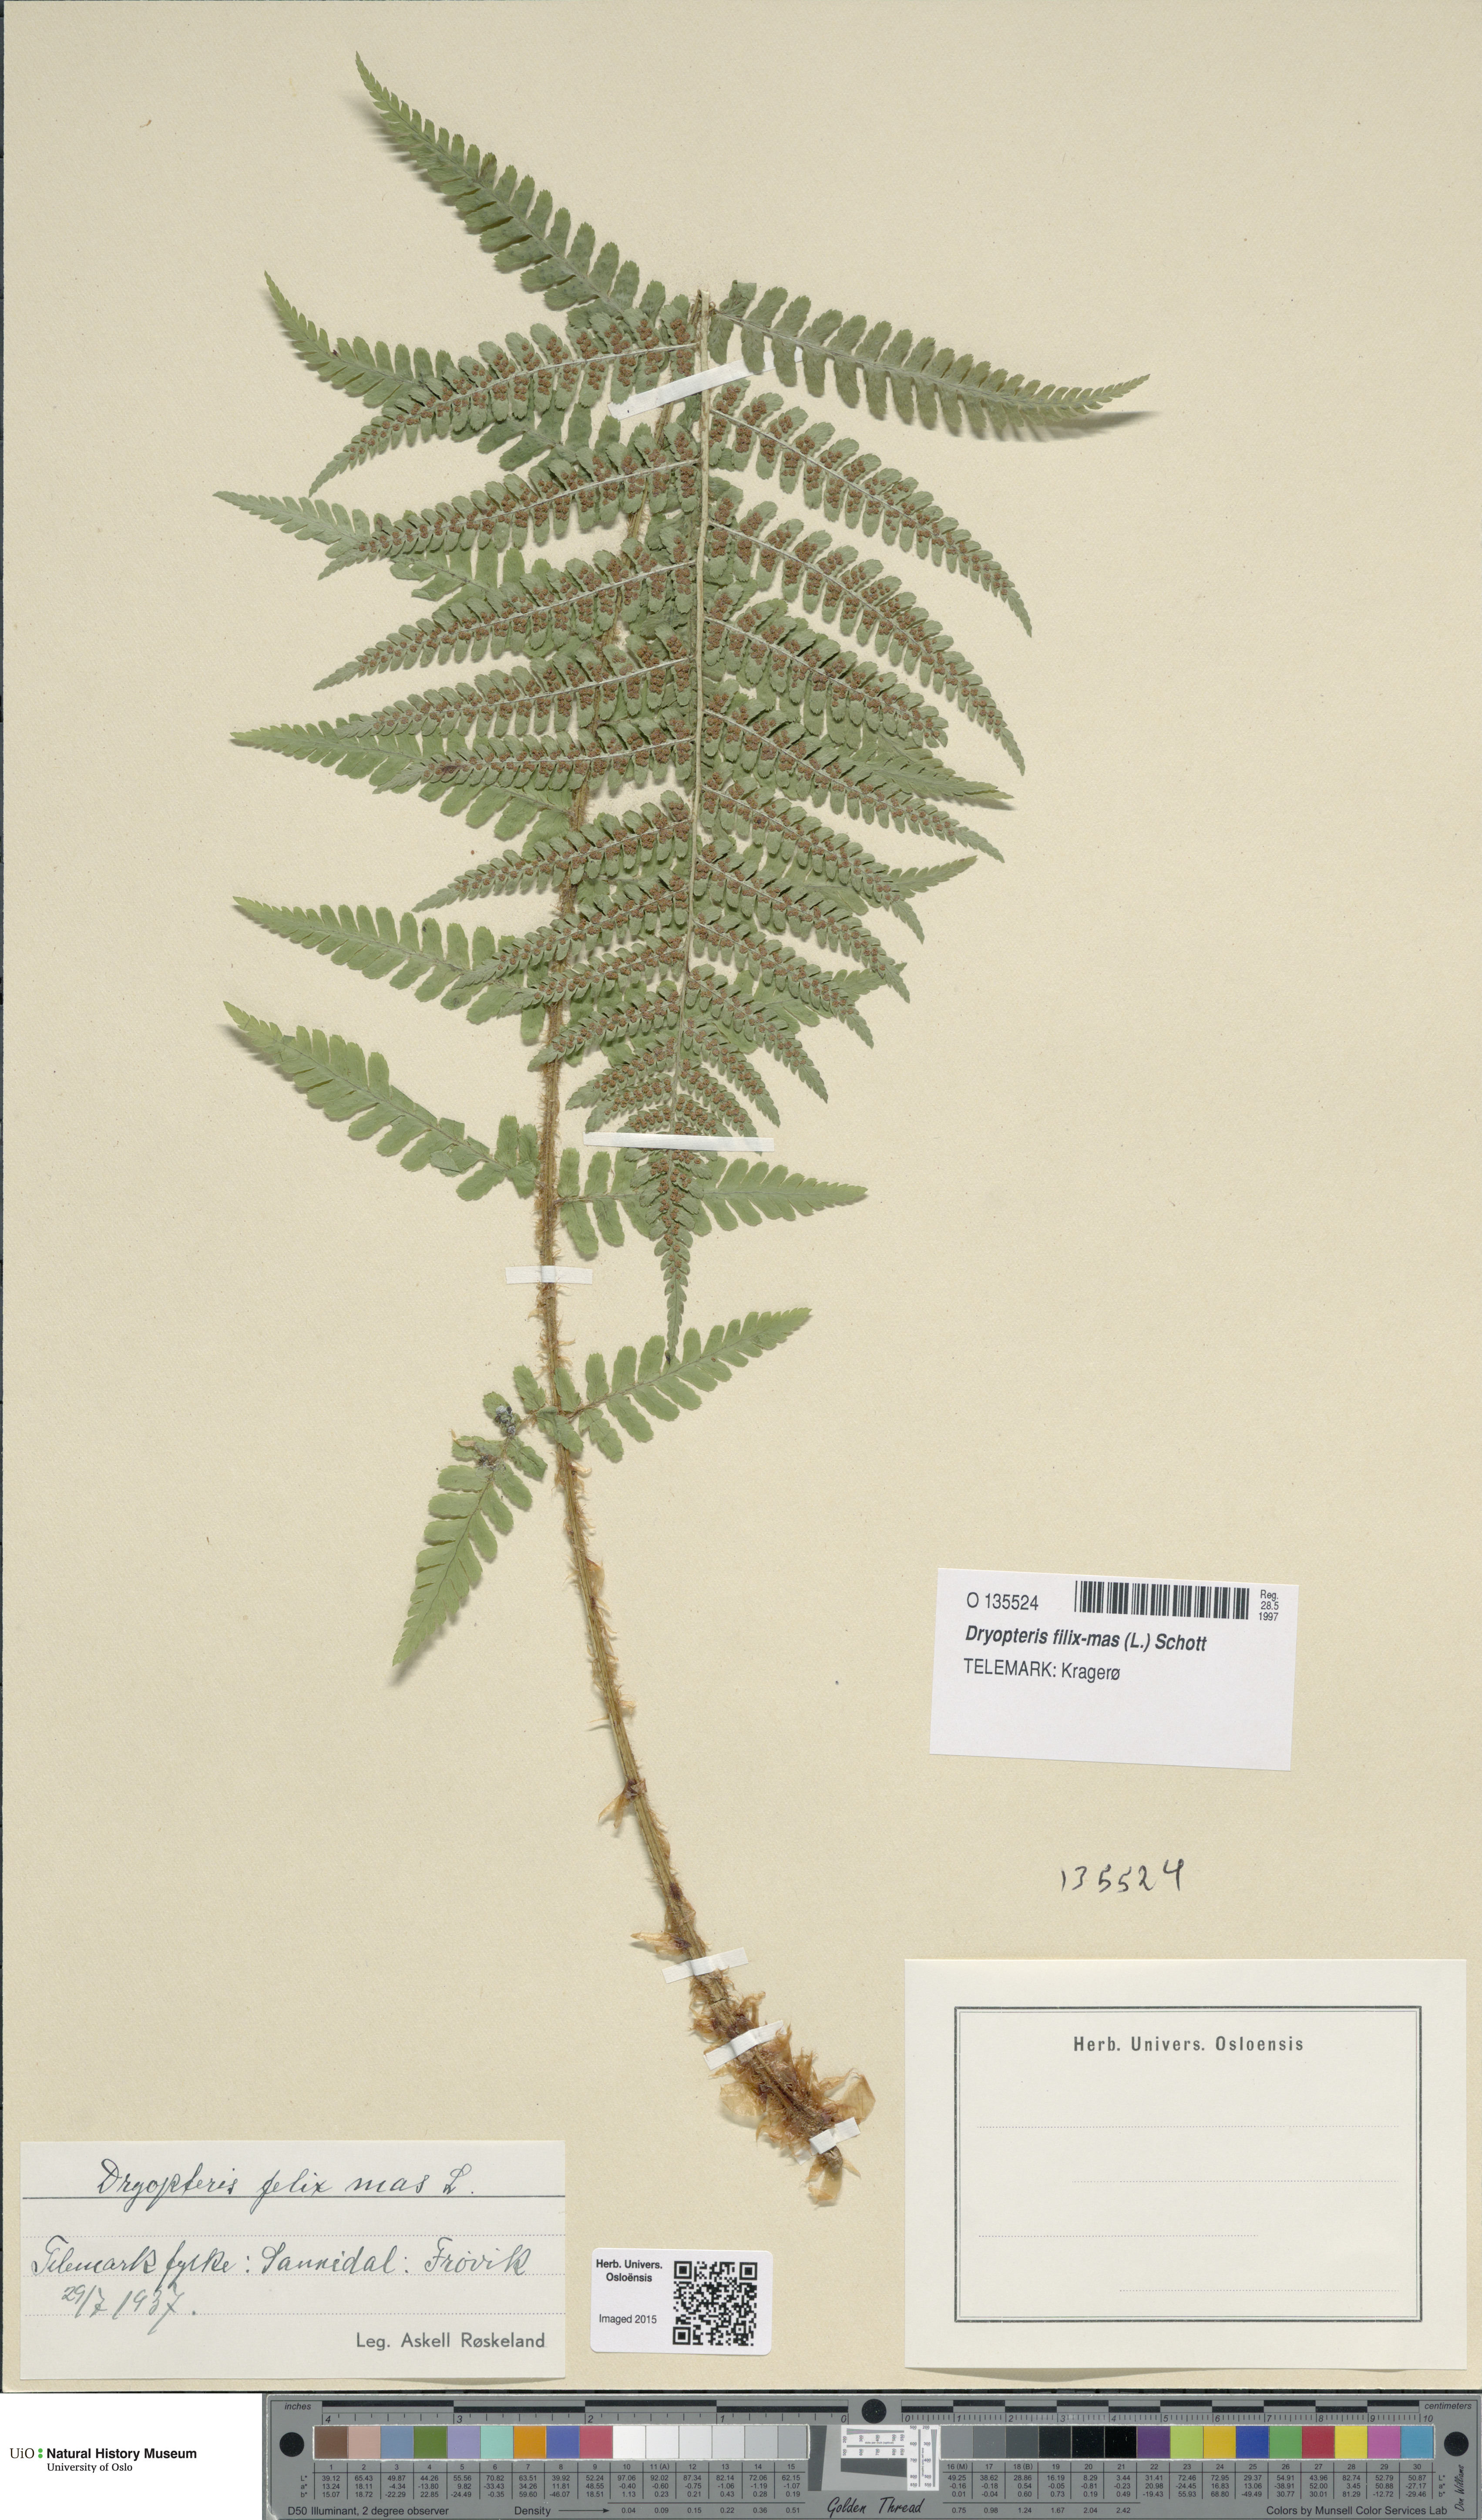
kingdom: Plantae
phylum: Tracheophyta
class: Polypodiopsida
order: Polypodiales
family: Dryopteridaceae
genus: Dryopteris
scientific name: Dryopteris filix-mas
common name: Male fern
